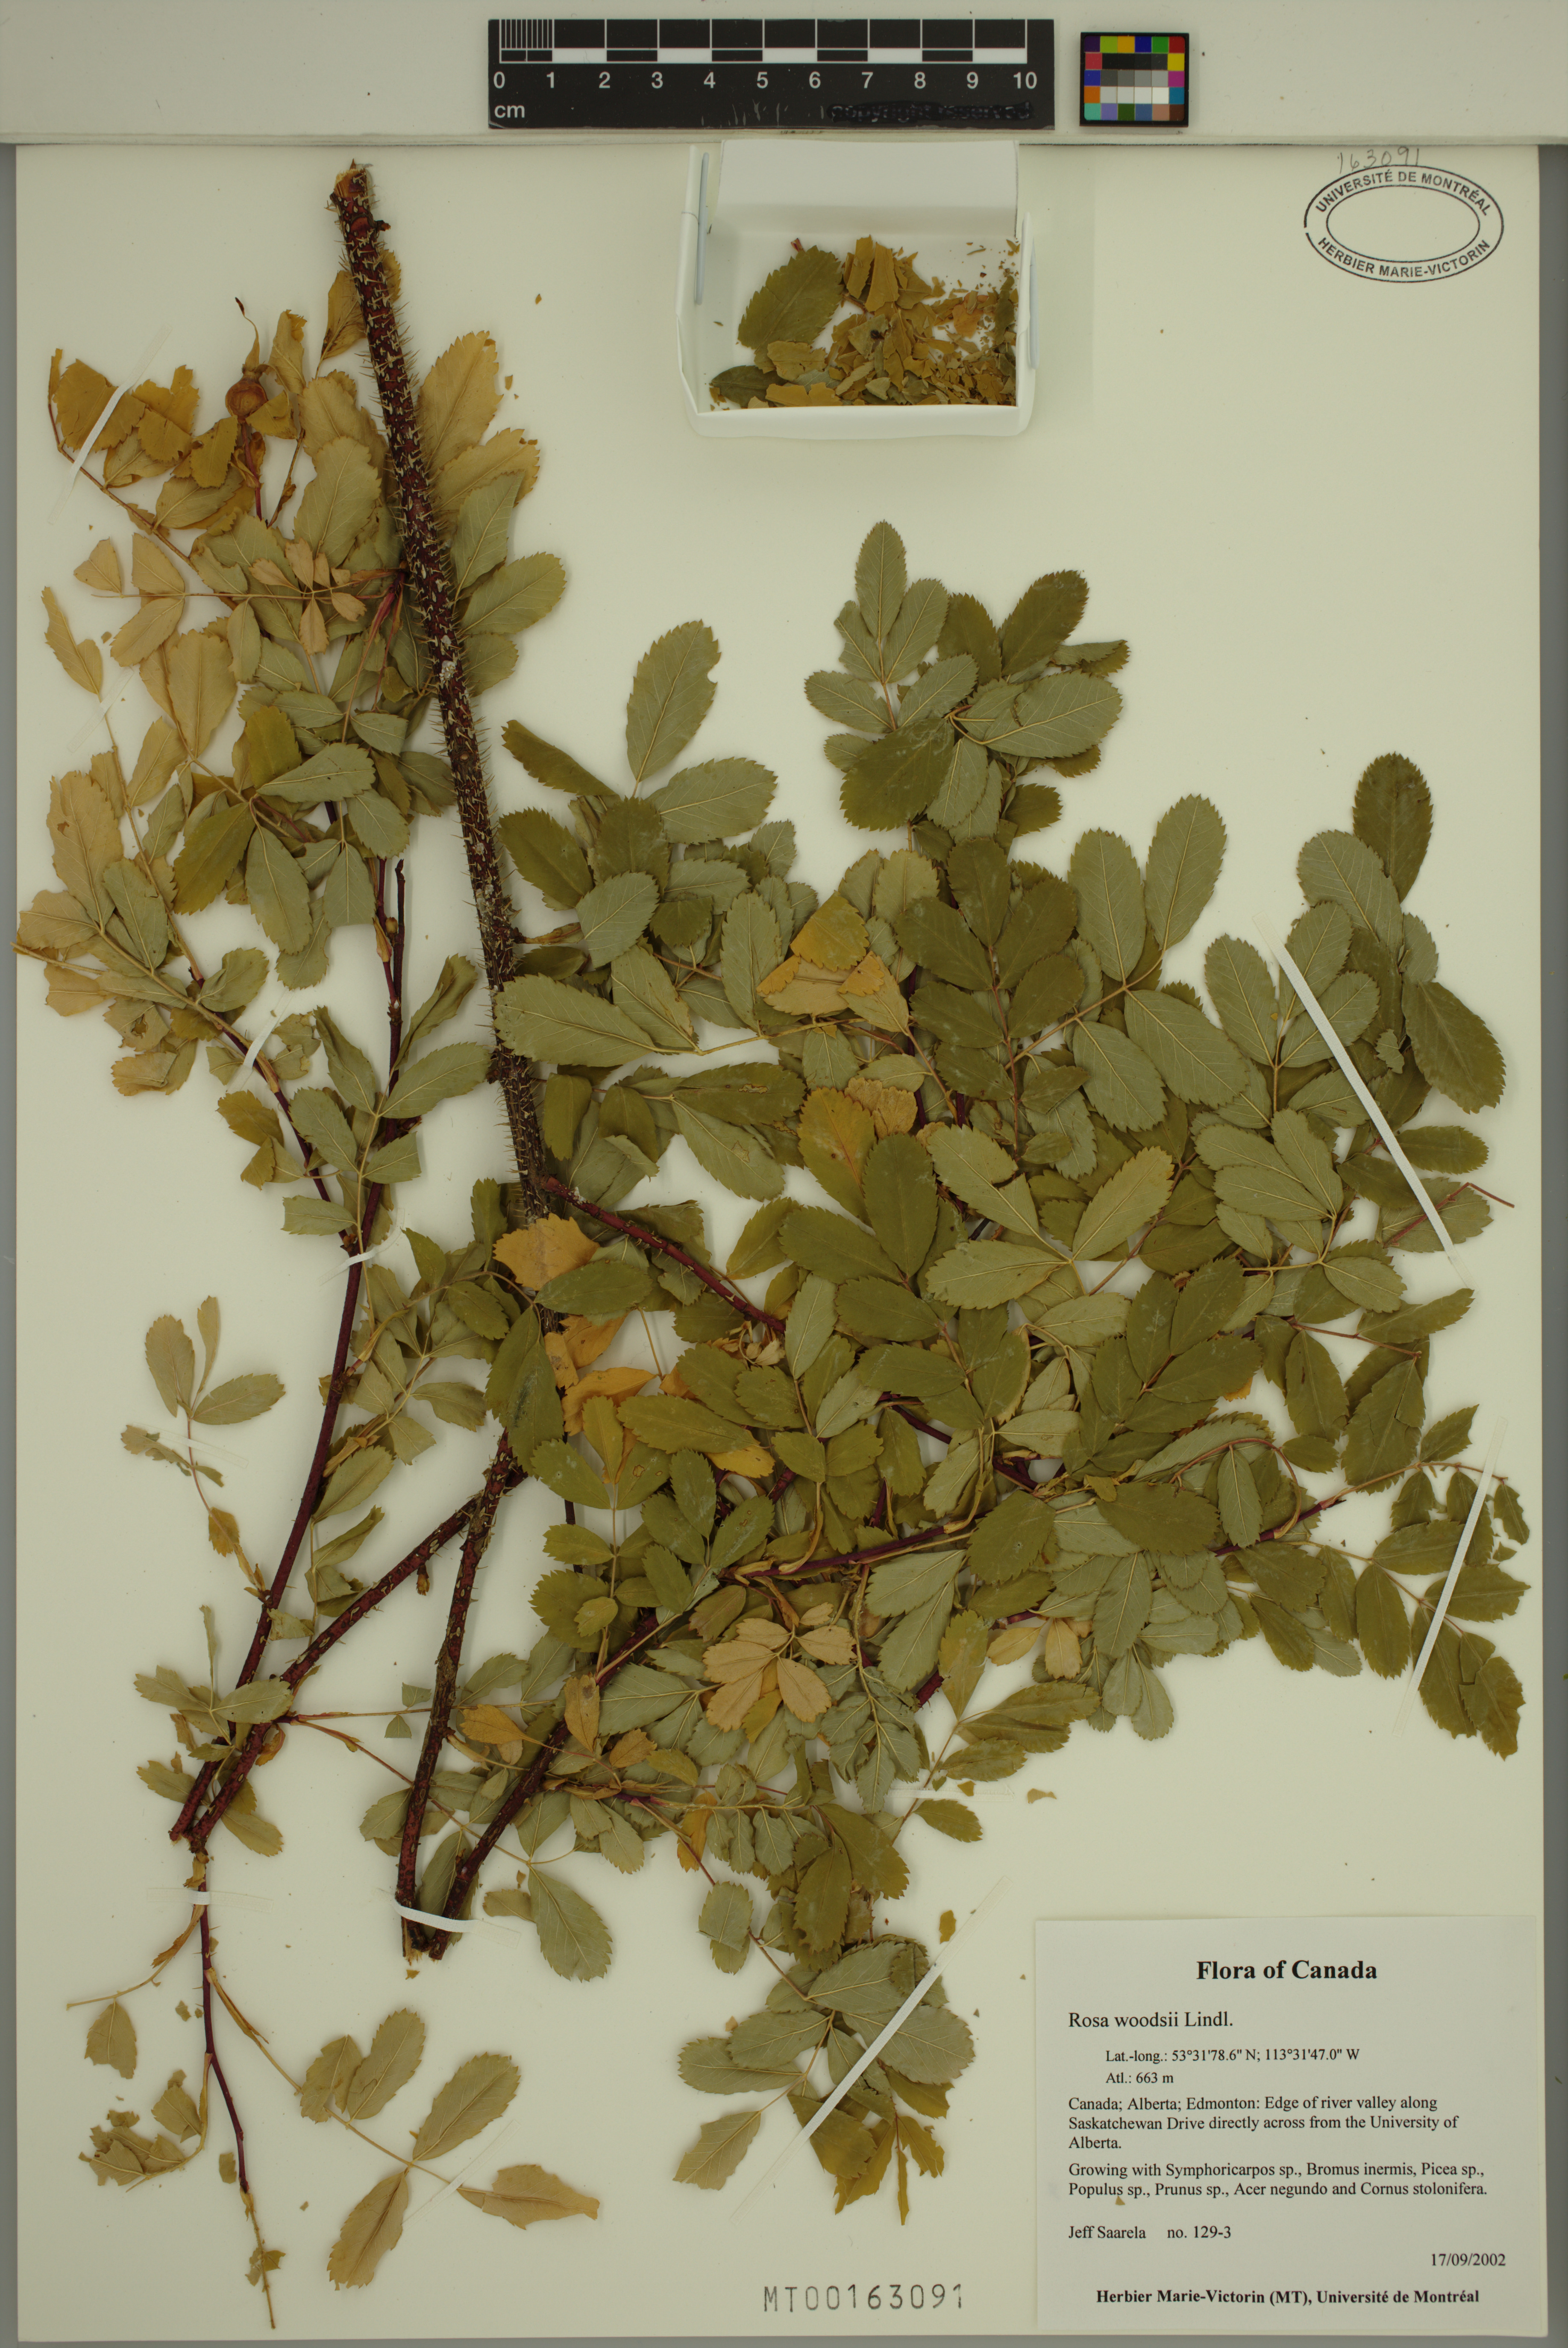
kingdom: Plantae
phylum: Tracheophyta
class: Magnoliopsida
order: Rosales
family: Rosaceae
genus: Rosa
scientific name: Rosa woodsii
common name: Woods's rose
